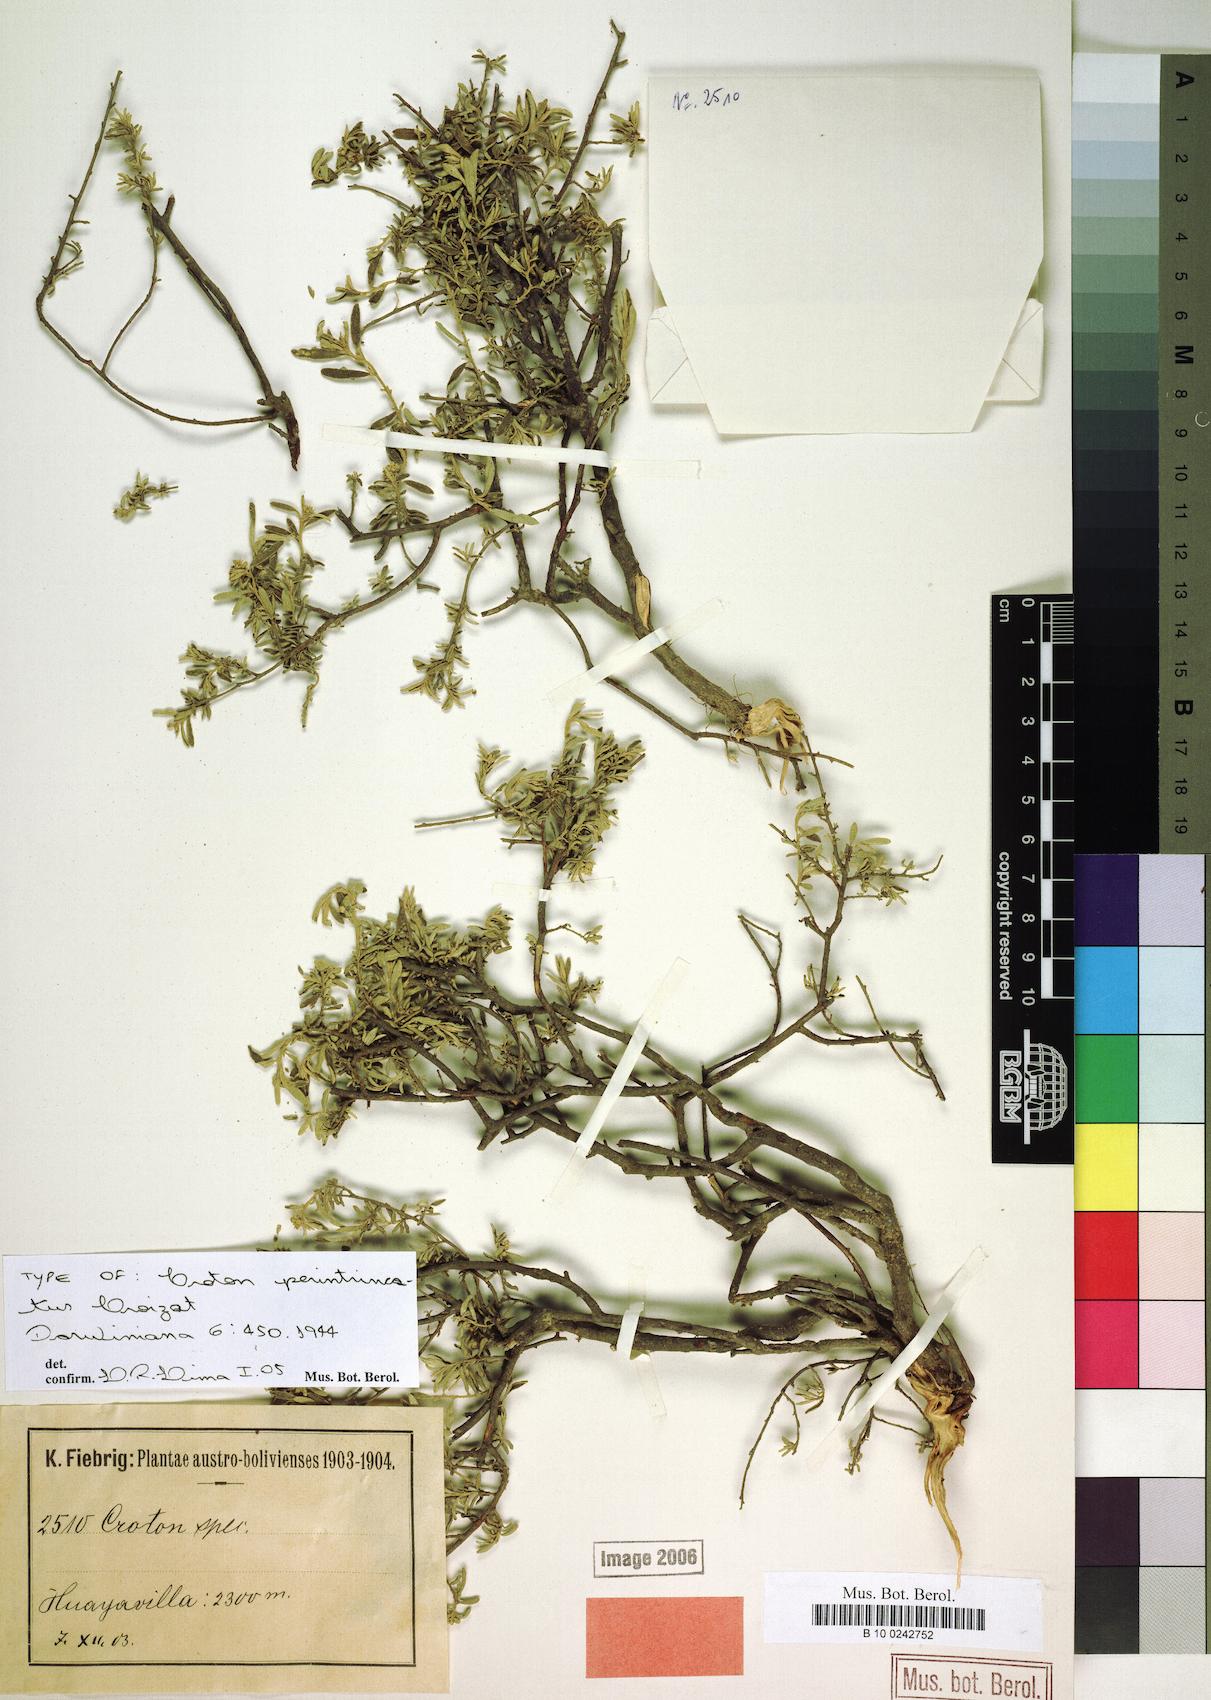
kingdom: Plantae
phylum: Tracheophyta
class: Magnoliopsida
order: Malpighiales
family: Euphorbiaceae
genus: Croton
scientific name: Croton perintricatus
